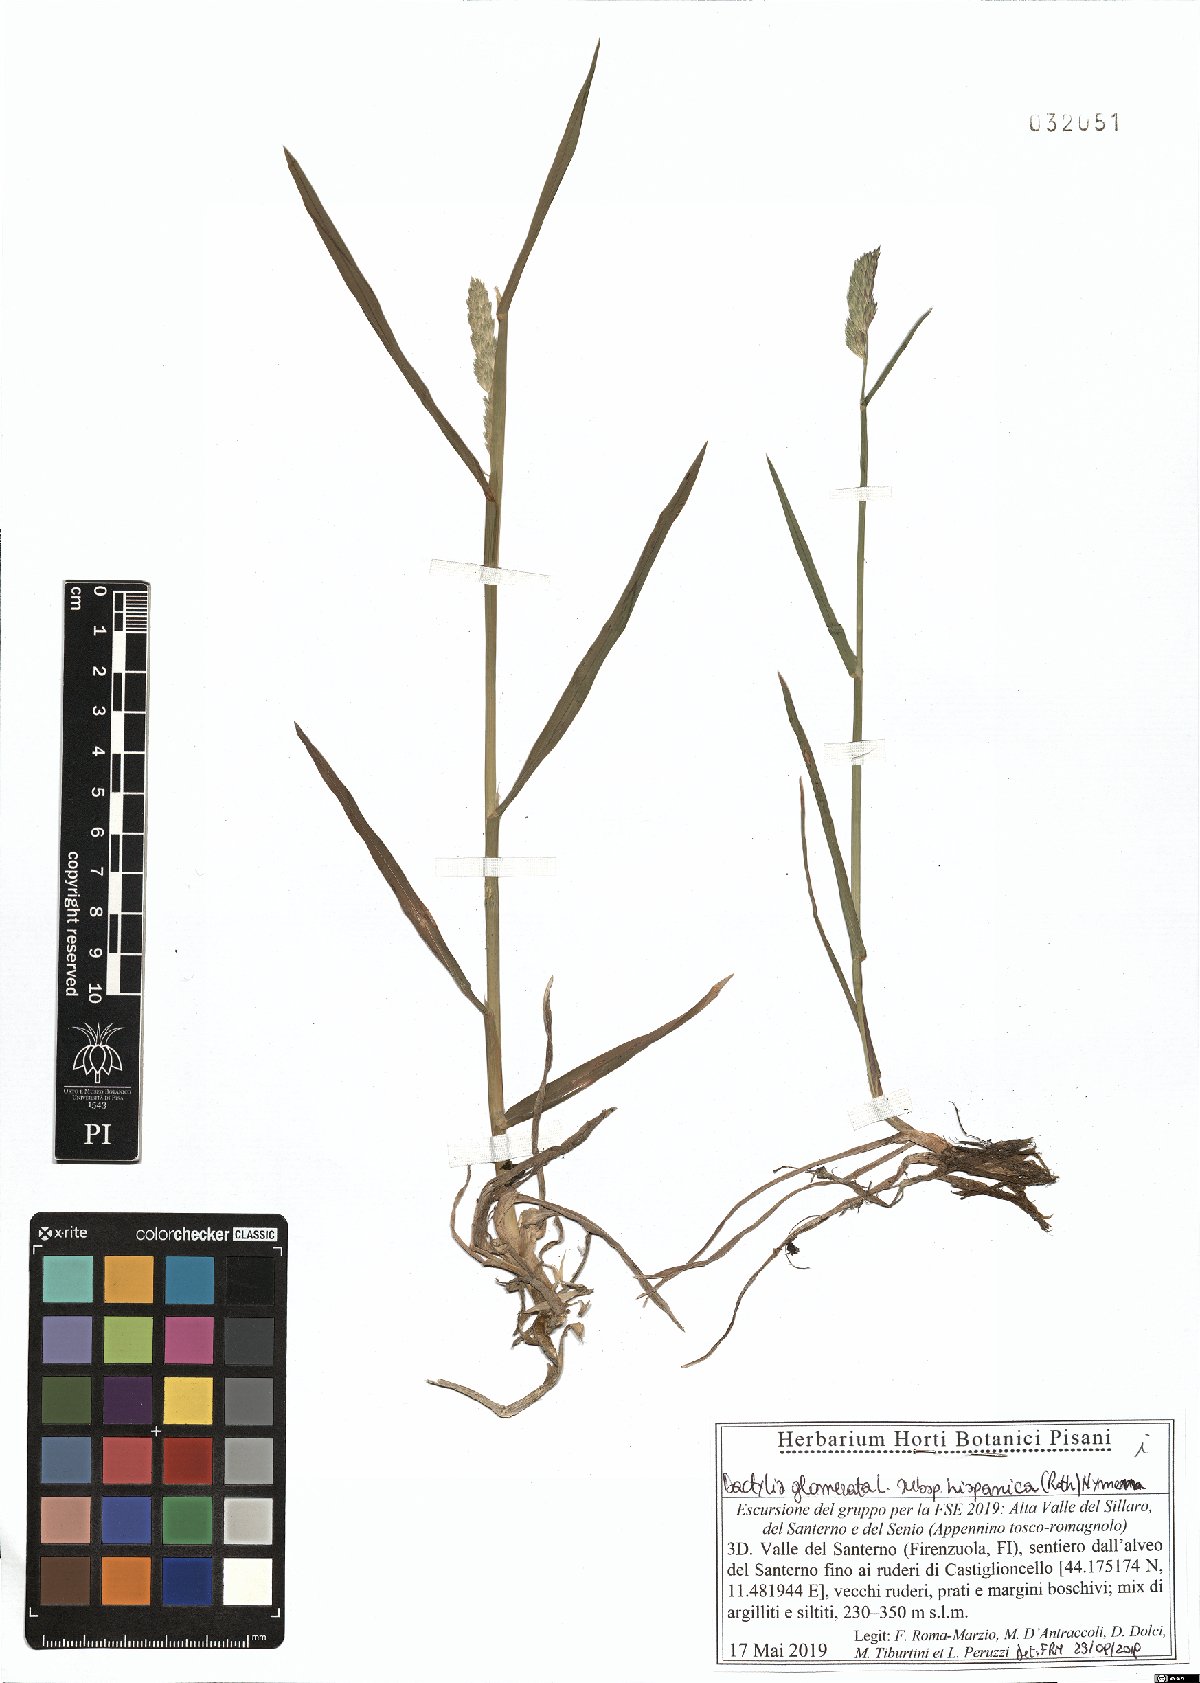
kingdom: Plantae
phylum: Tracheophyta
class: Liliopsida
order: Poales
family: Poaceae
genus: Dactylis
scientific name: Dactylis glomerata
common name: Orchardgrass
